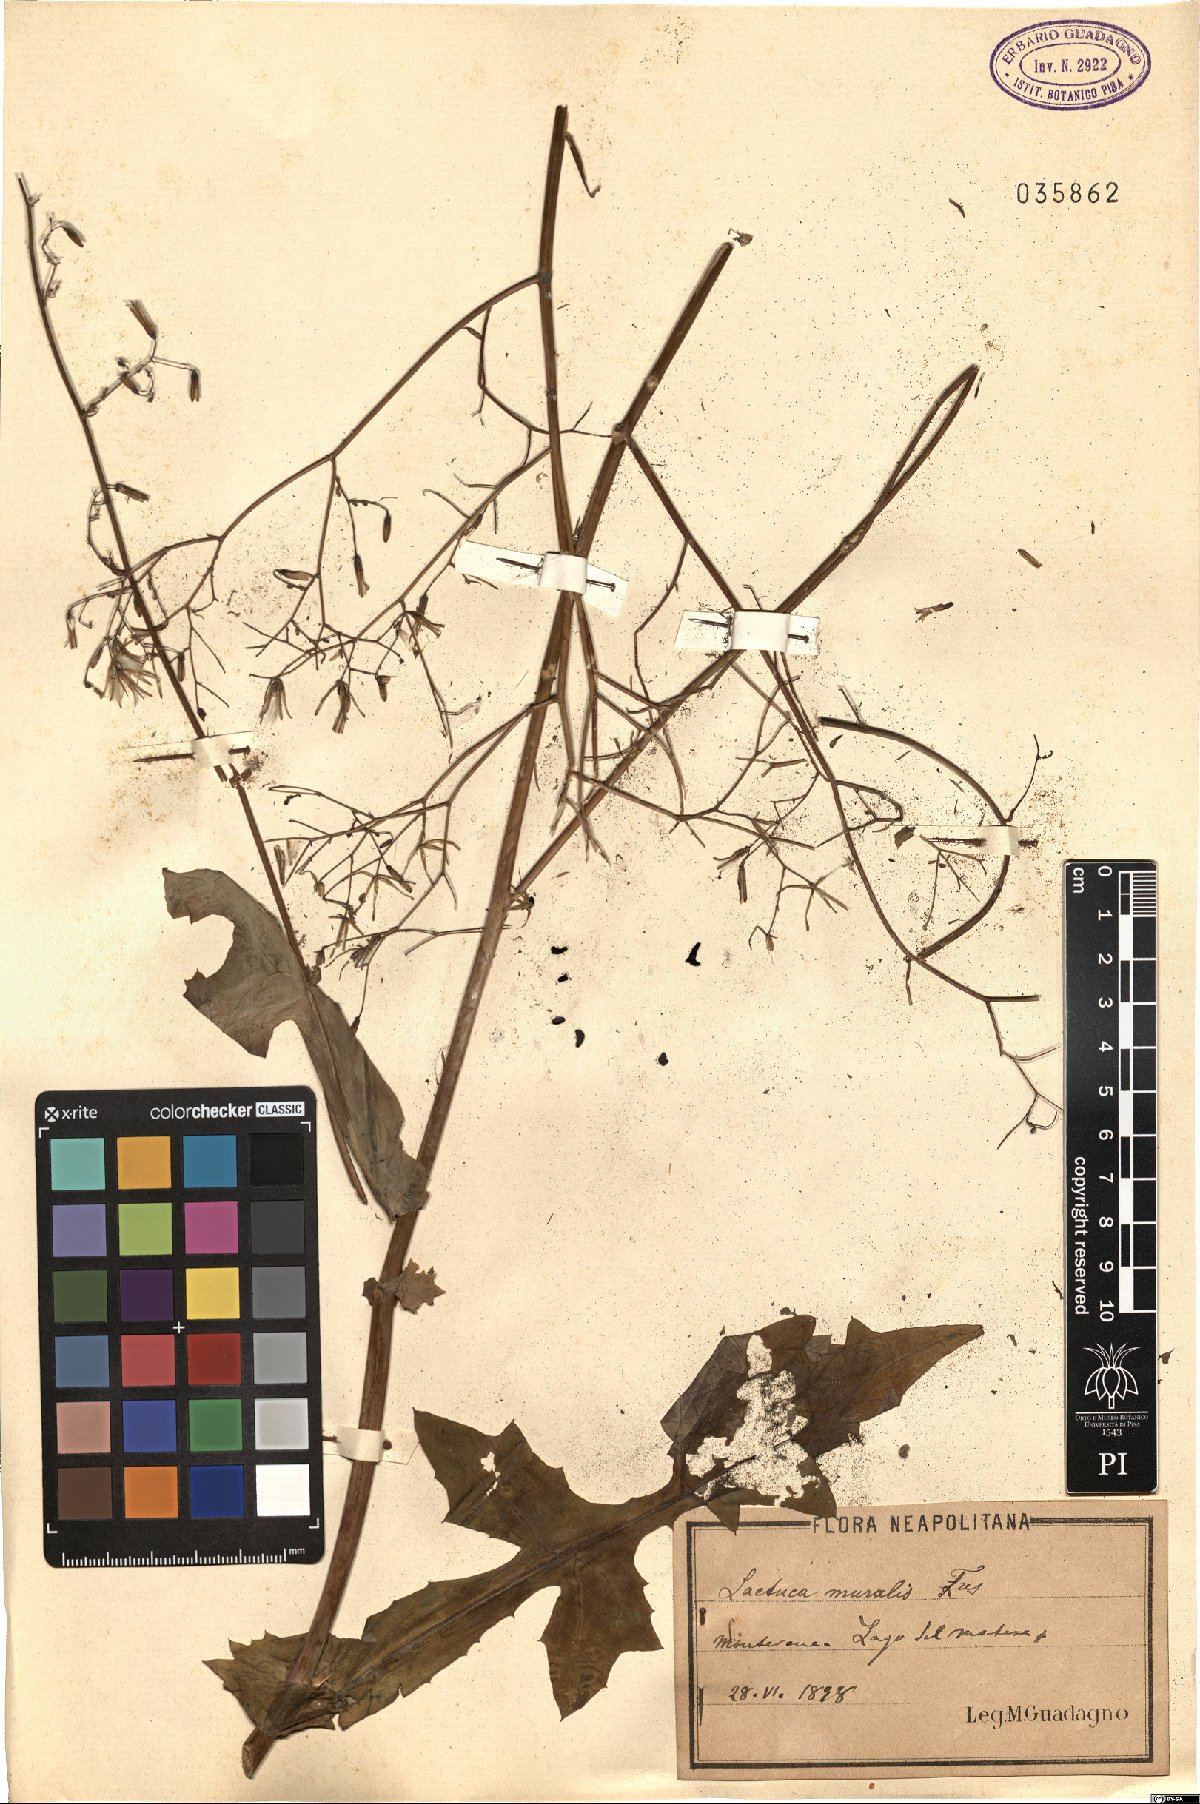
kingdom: Plantae
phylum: Tracheophyta
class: Magnoliopsida
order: Asterales
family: Asteraceae
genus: Mycelis
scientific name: Mycelis muralis
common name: Wall lettuce
